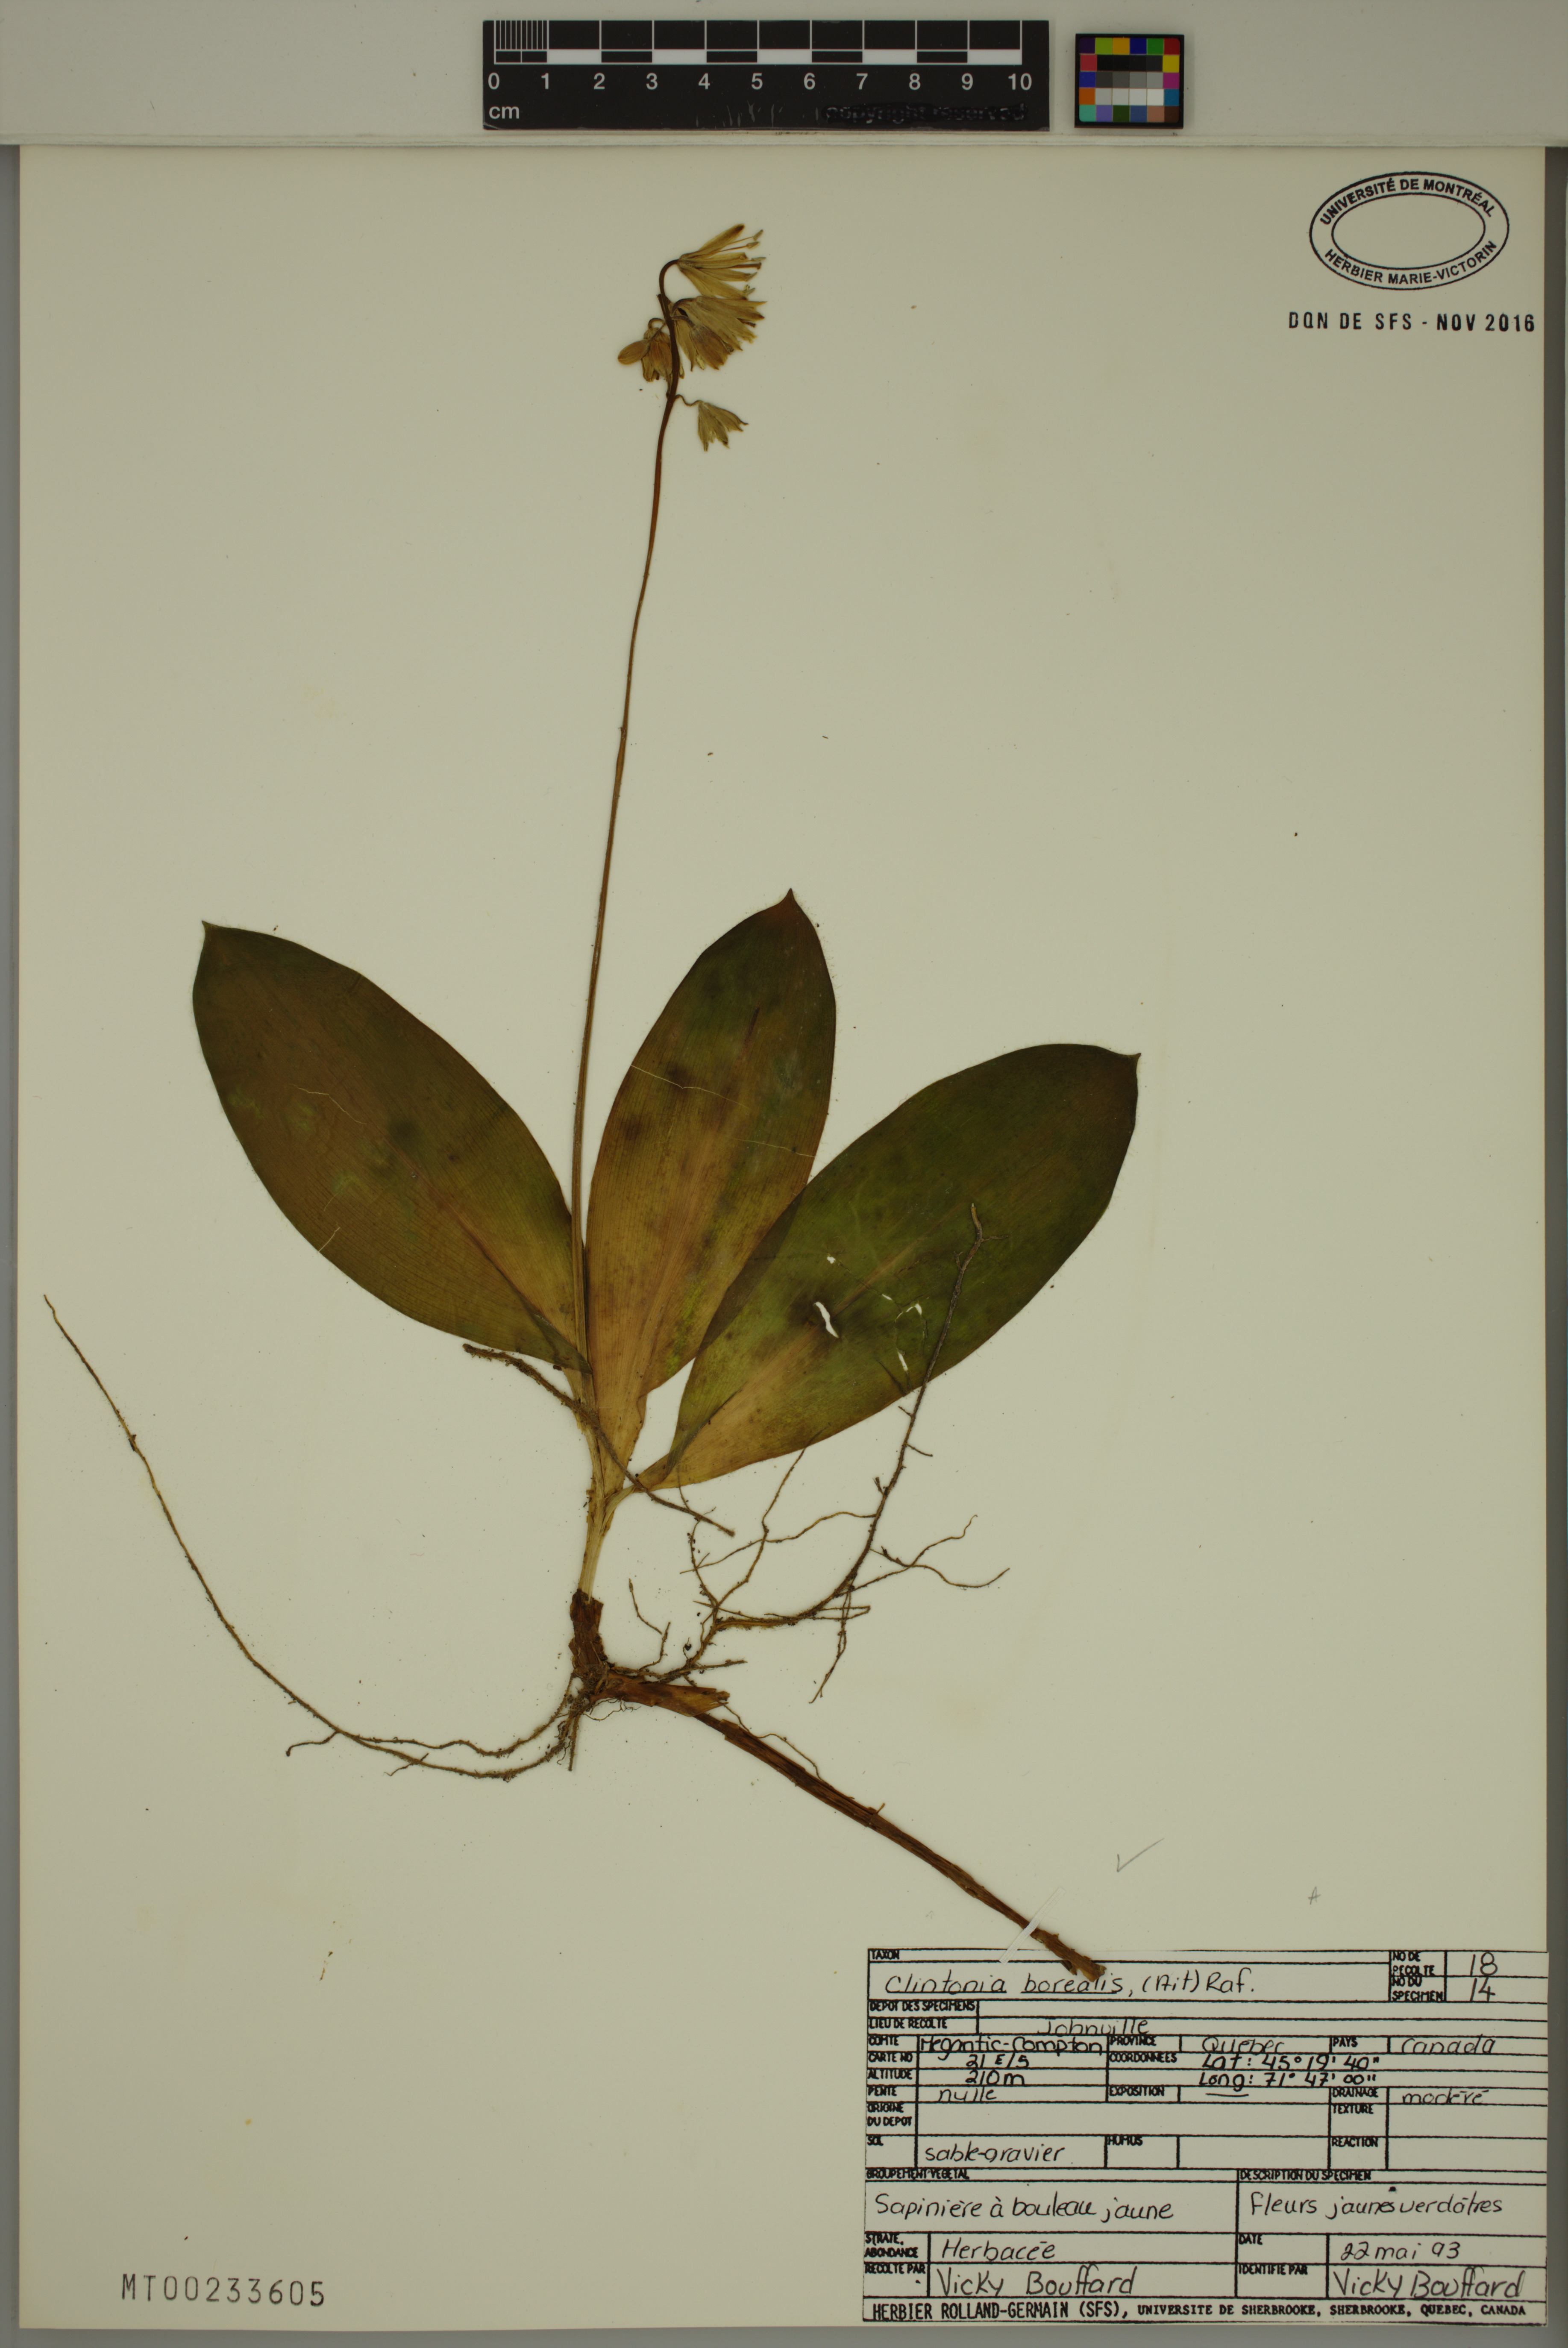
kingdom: Plantae
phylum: Tracheophyta
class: Liliopsida
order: Liliales
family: Liliaceae
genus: Clintonia
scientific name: Clintonia borealis
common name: Yellow clintonia
